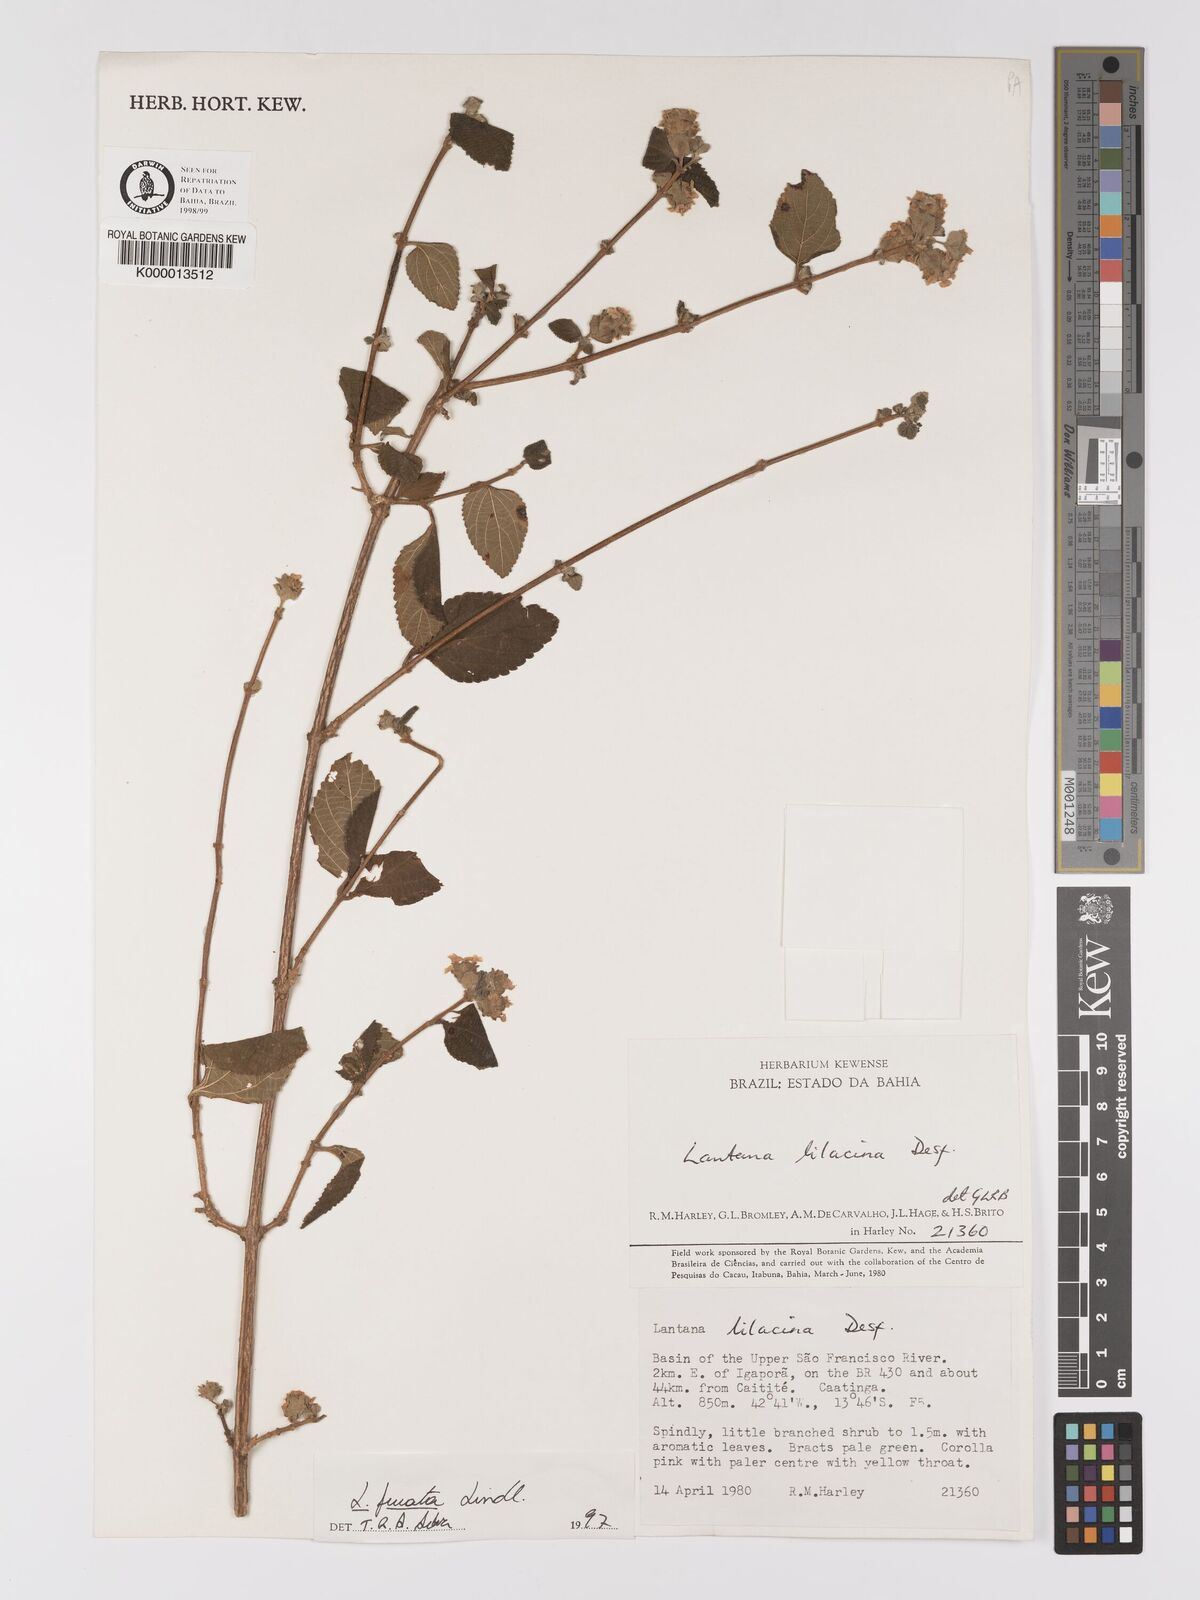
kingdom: Plantae
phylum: Tracheophyta
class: Magnoliopsida
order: Lamiales
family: Verbenaceae
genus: Lantana
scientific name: Lantana fucata
